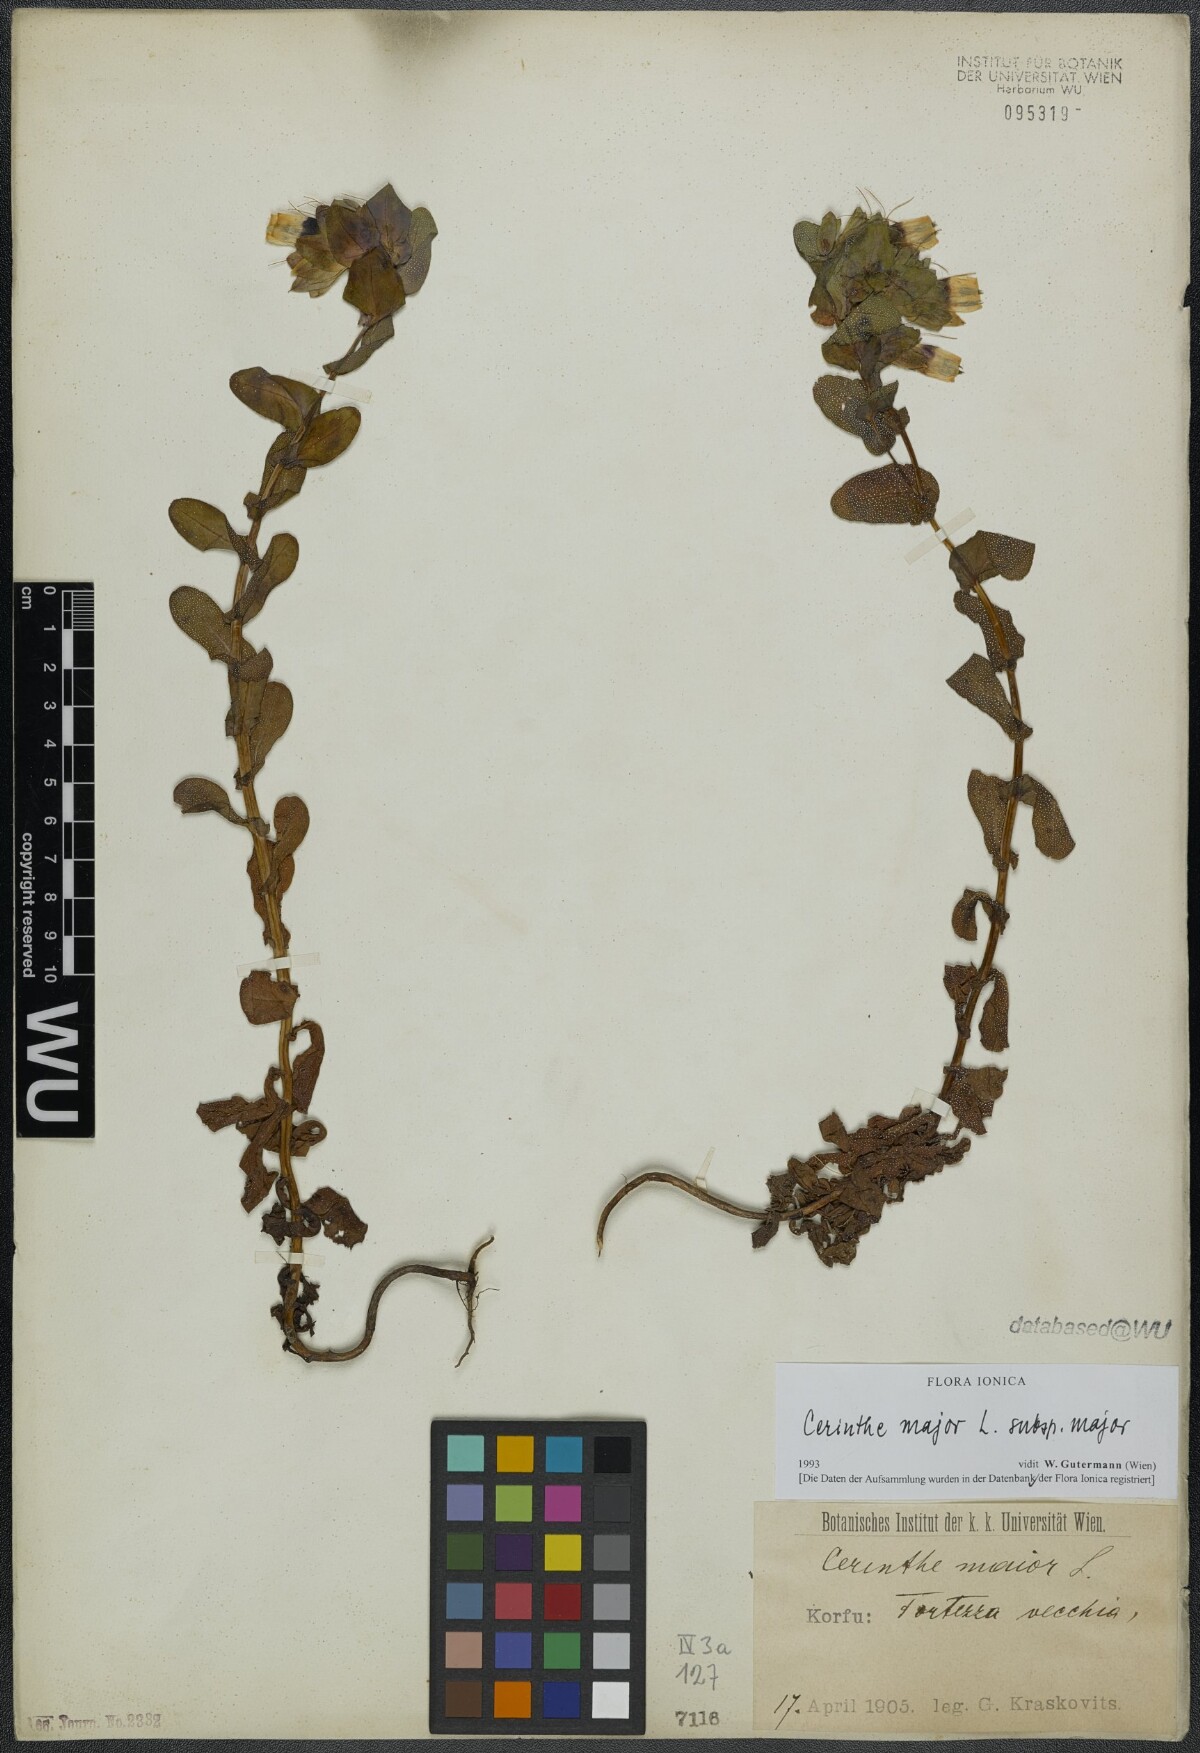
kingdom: Plantae
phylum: Tracheophyta
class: Magnoliopsida
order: Boraginales
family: Boraginaceae
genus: Cerinthe
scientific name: Cerinthe major
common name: Greater honeywort
